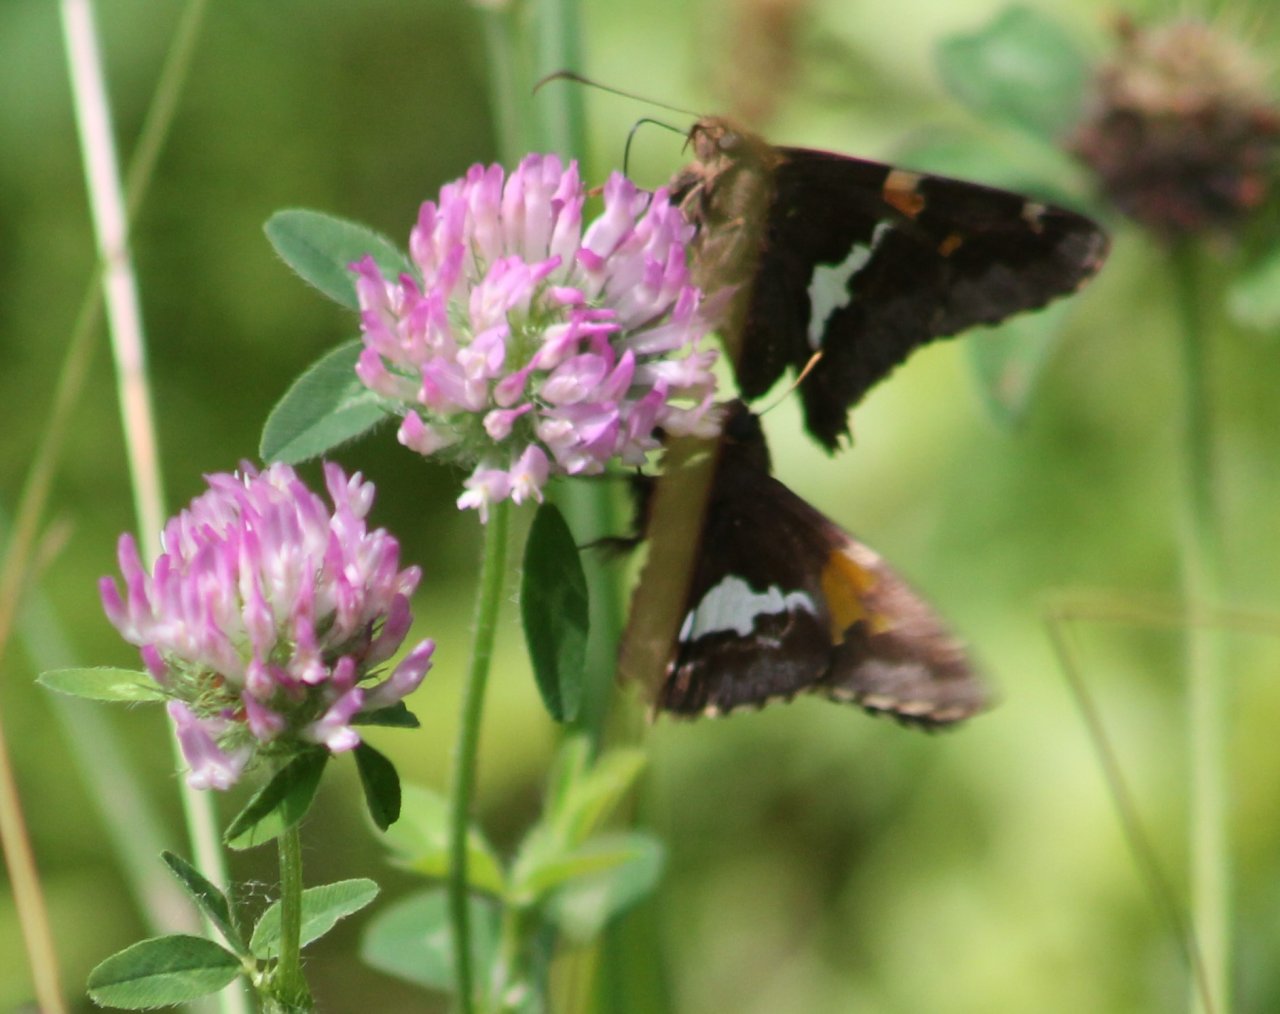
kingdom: Animalia
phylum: Arthropoda
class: Insecta
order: Lepidoptera
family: Hesperiidae
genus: Epargyreus
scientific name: Epargyreus clarus
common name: Silver-spotted Skipper
